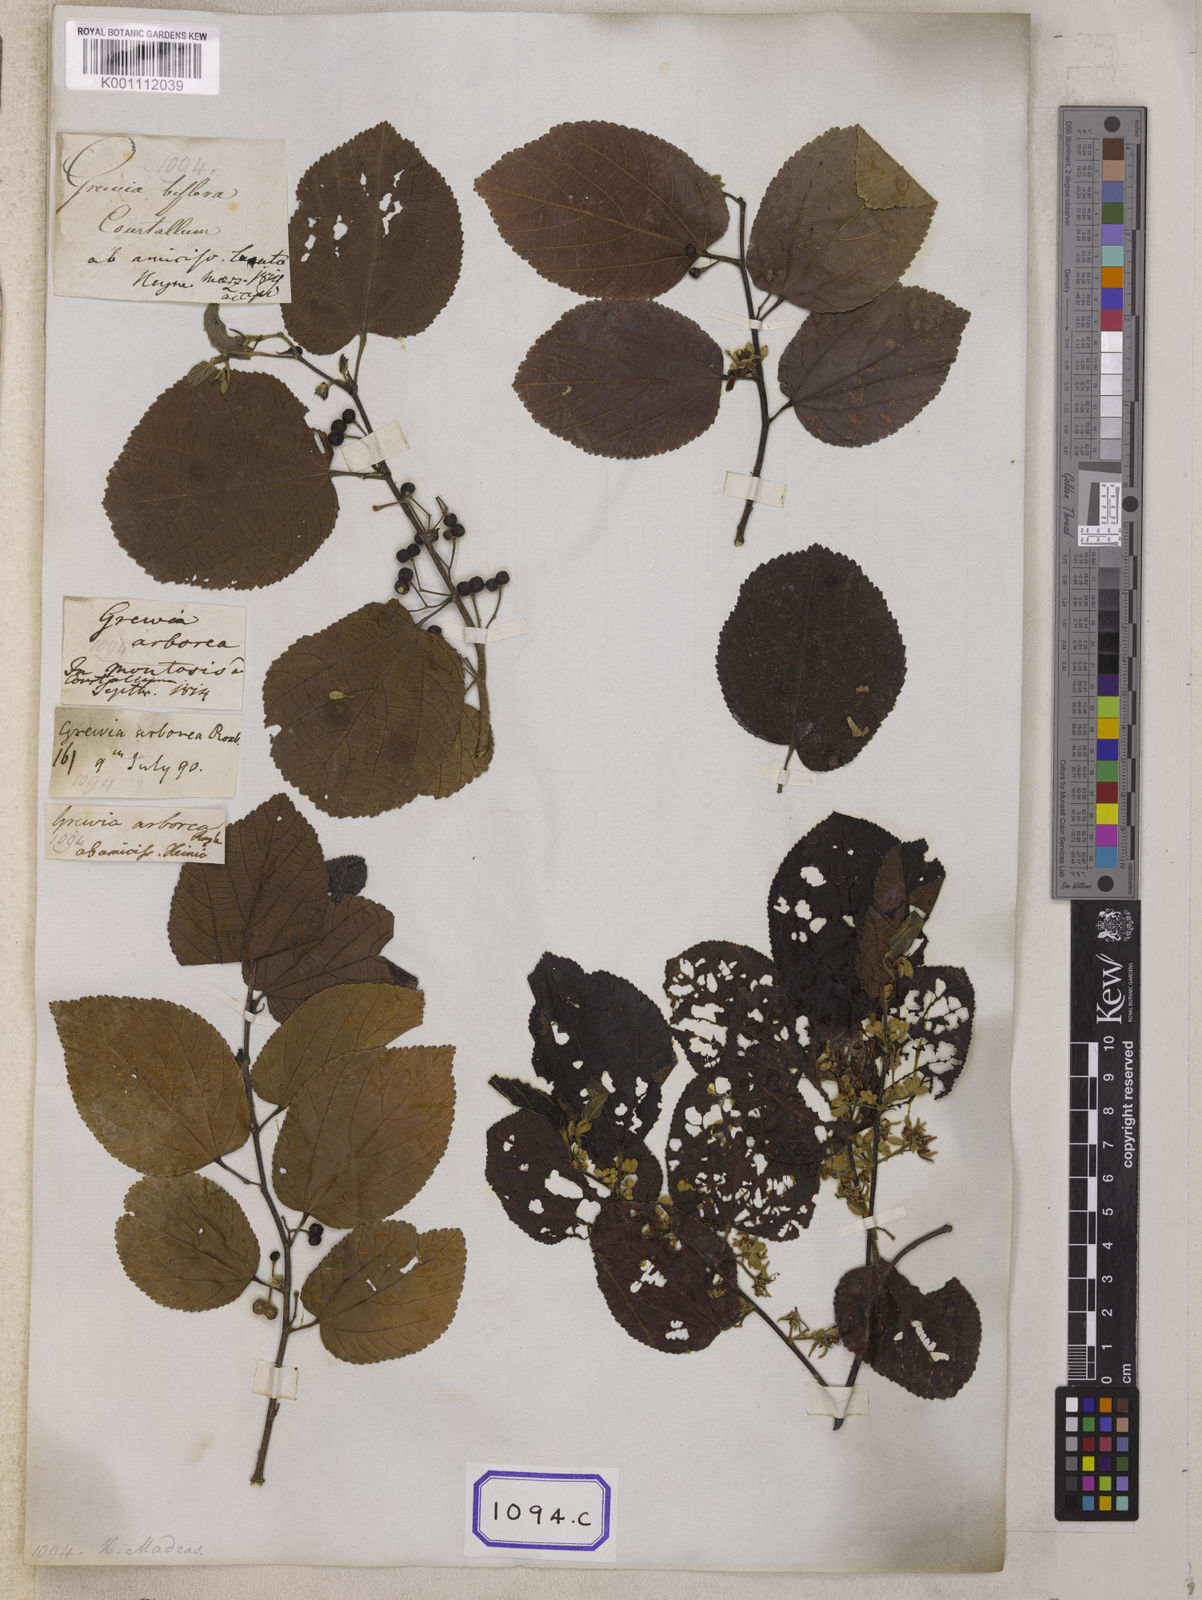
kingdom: Plantae
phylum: Tracheophyta
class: Magnoliopsida
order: Malvales
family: Malvaceae
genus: Grewia
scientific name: Grewia tiliifolia
